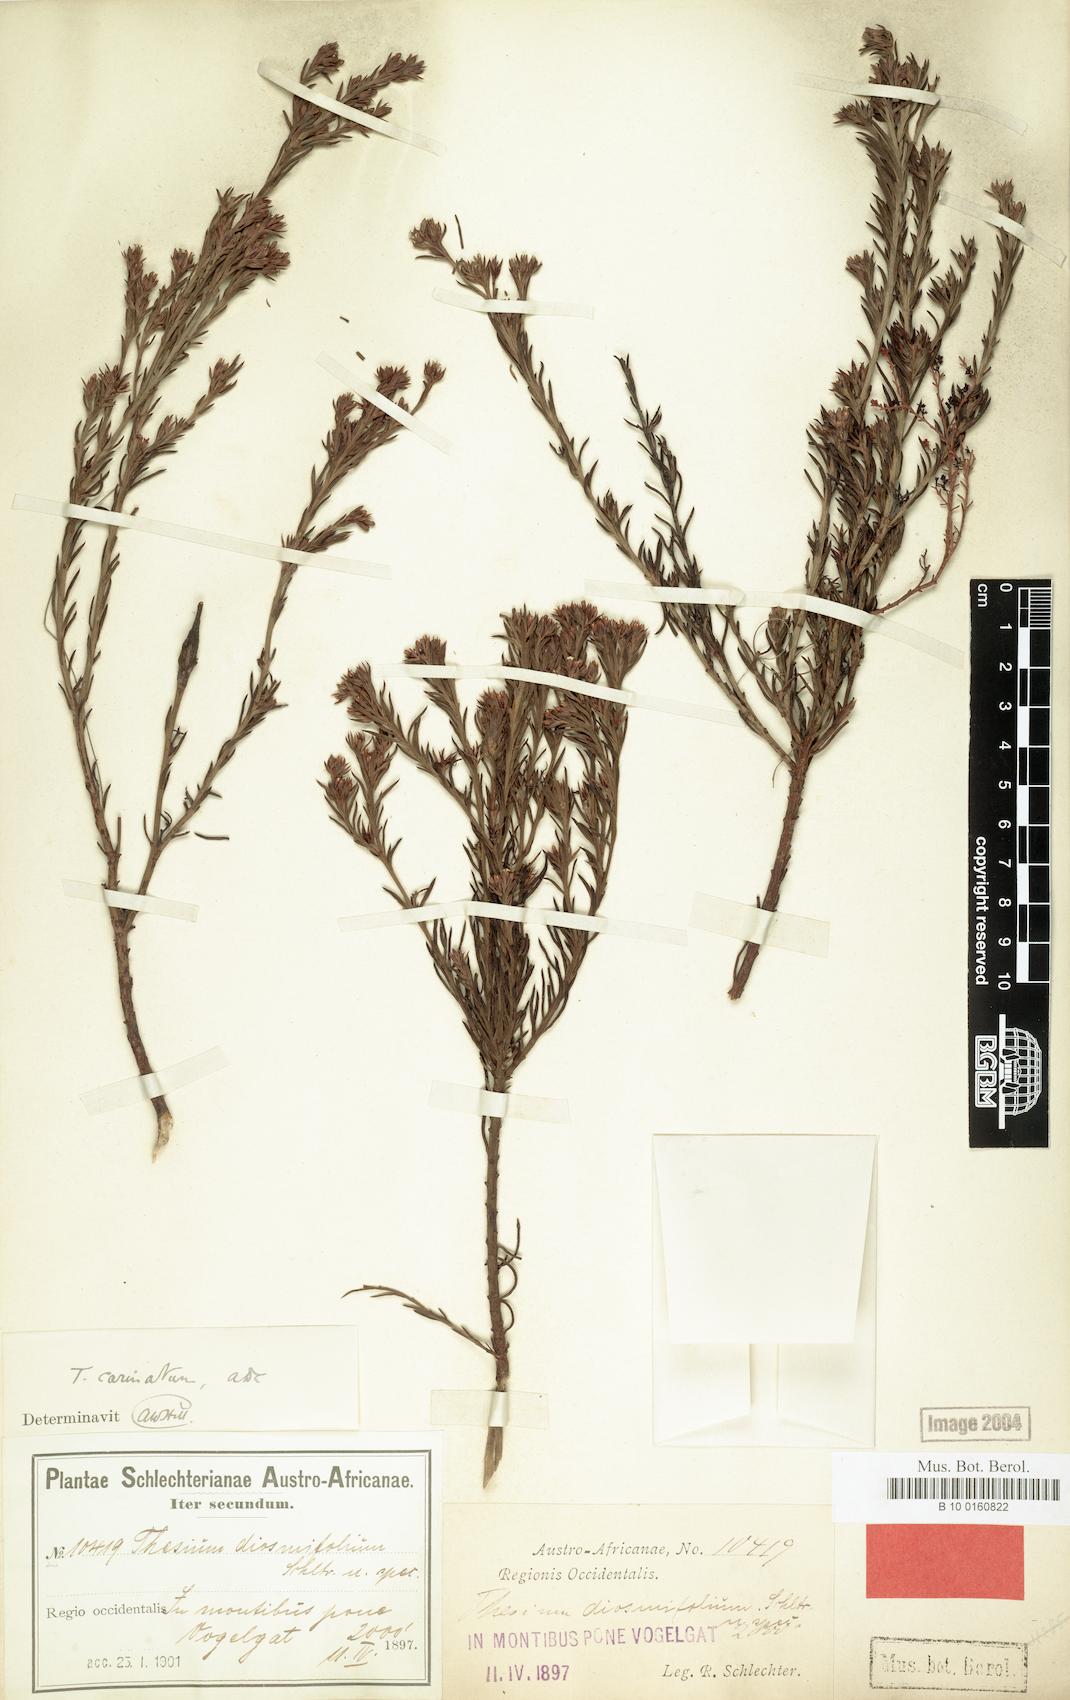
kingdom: Plantae
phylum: Tracheophyta
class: Magnoliopsida
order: Santalales
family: Thesiaceae
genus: Thesium
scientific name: Thesium carinatum
